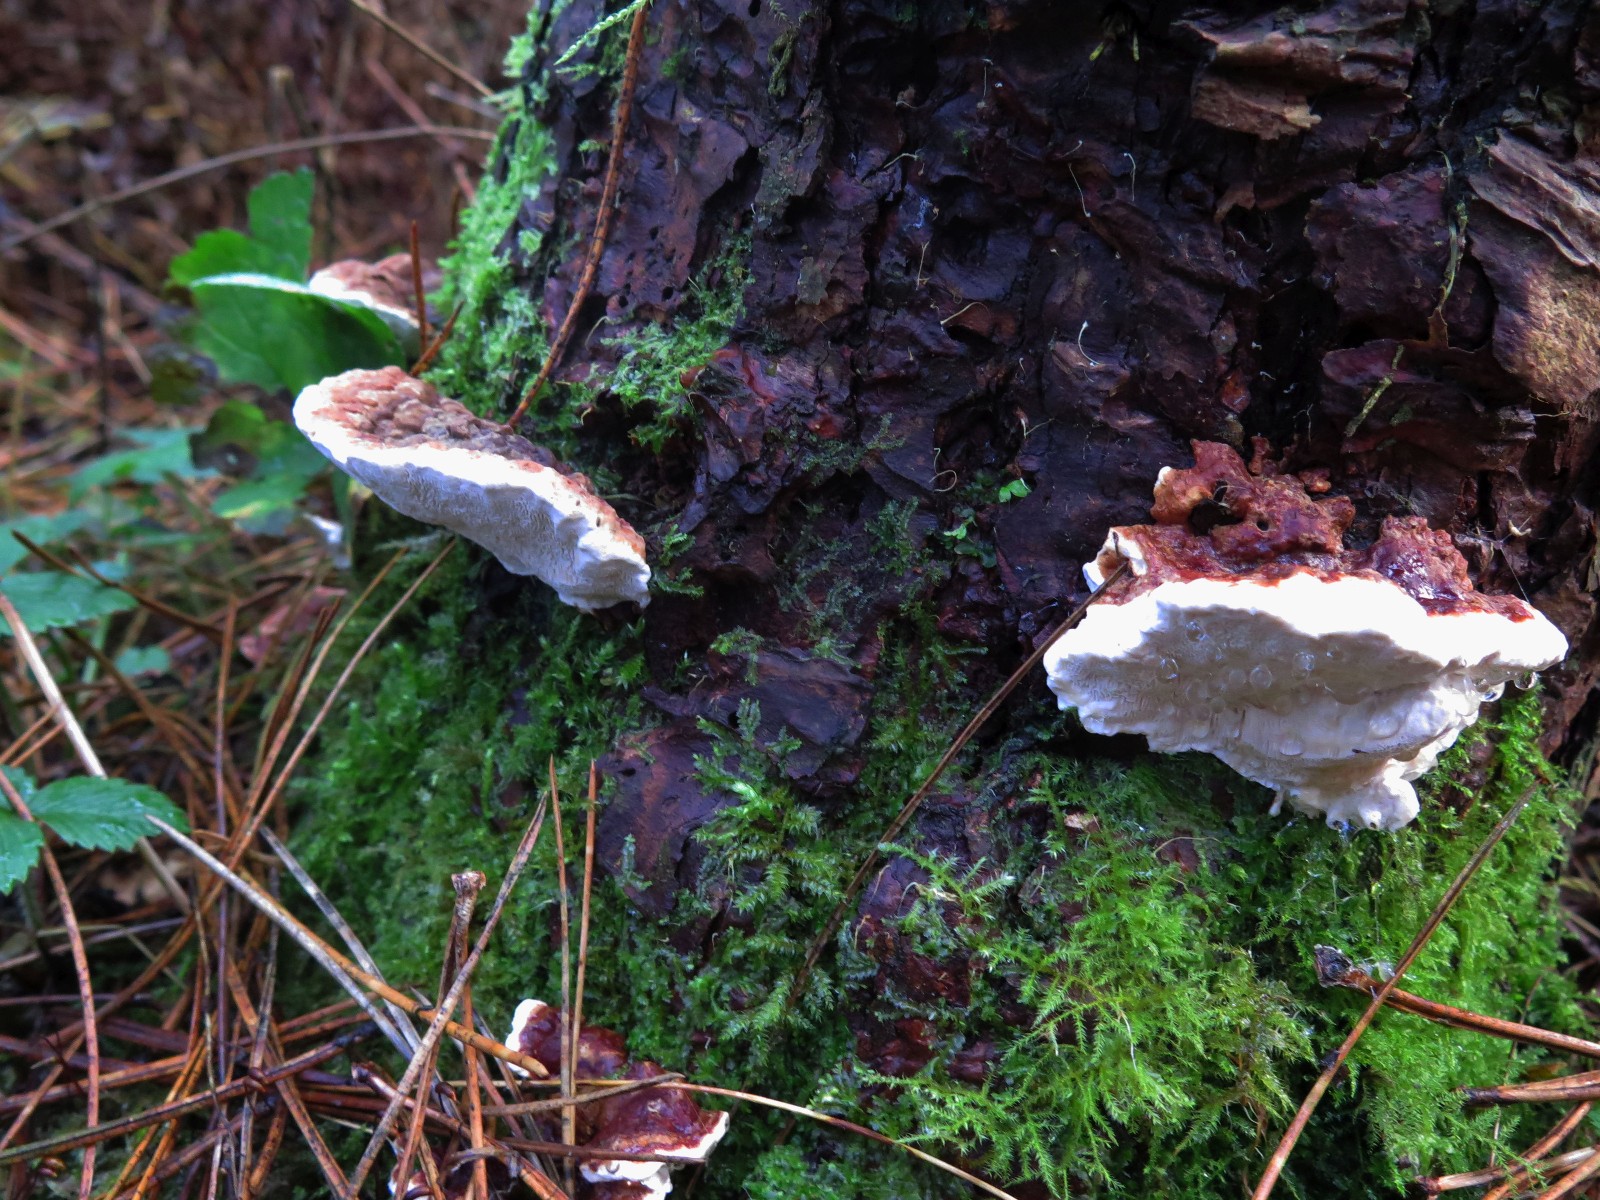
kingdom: Fungi
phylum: Basidiomycota
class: Agaricomycetes
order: Russulales
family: Bondarzewiaceae
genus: Heterobasidion
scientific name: Heterobasidion annosum
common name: almindelig rodfordærver
